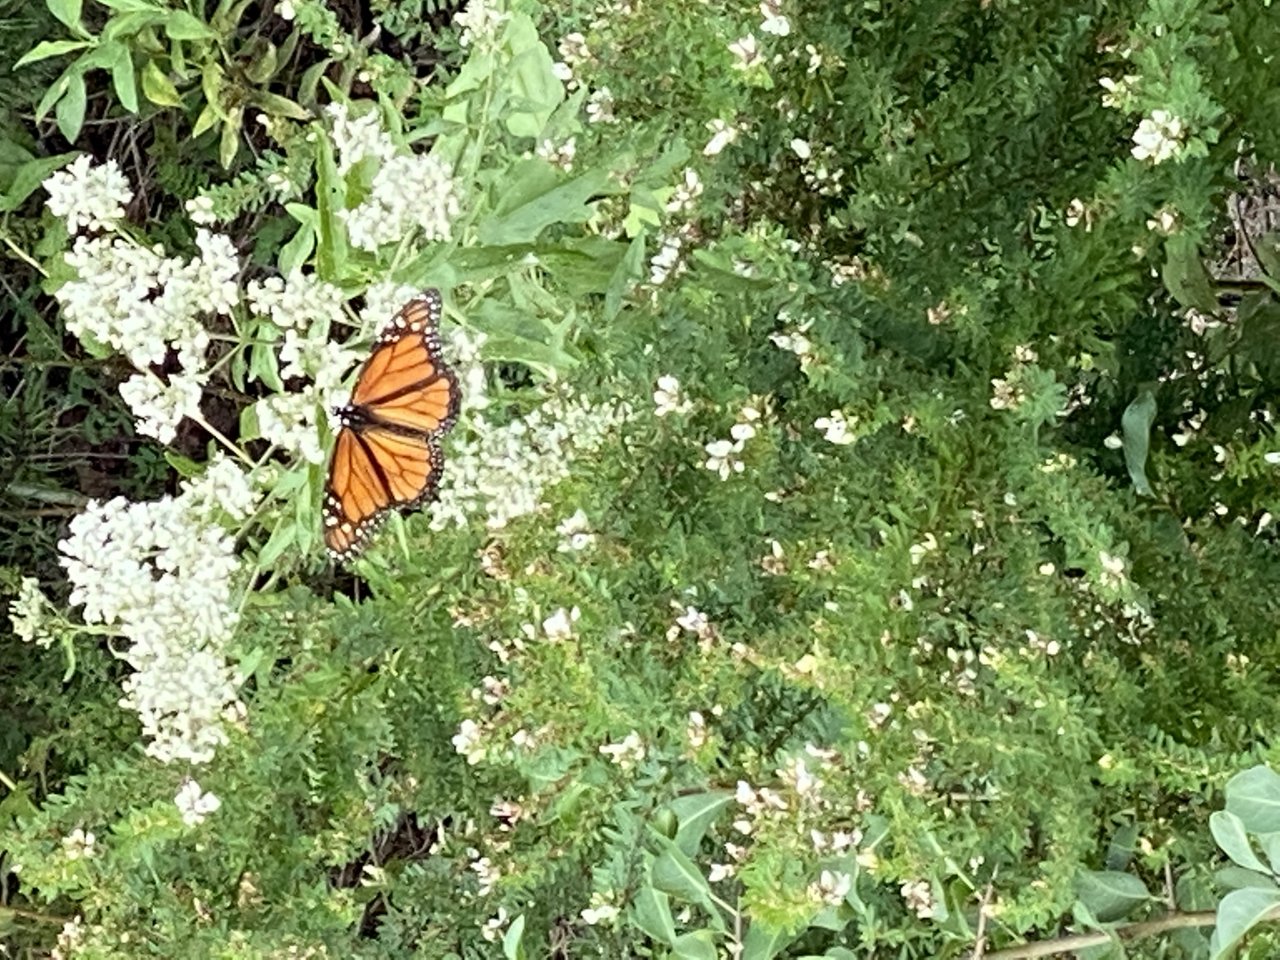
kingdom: Animalia
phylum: Arthropoda
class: Insecta
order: Lepidoptera
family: Nymphalidae
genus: Danaus
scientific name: Danaus plexippus
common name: Monarch
